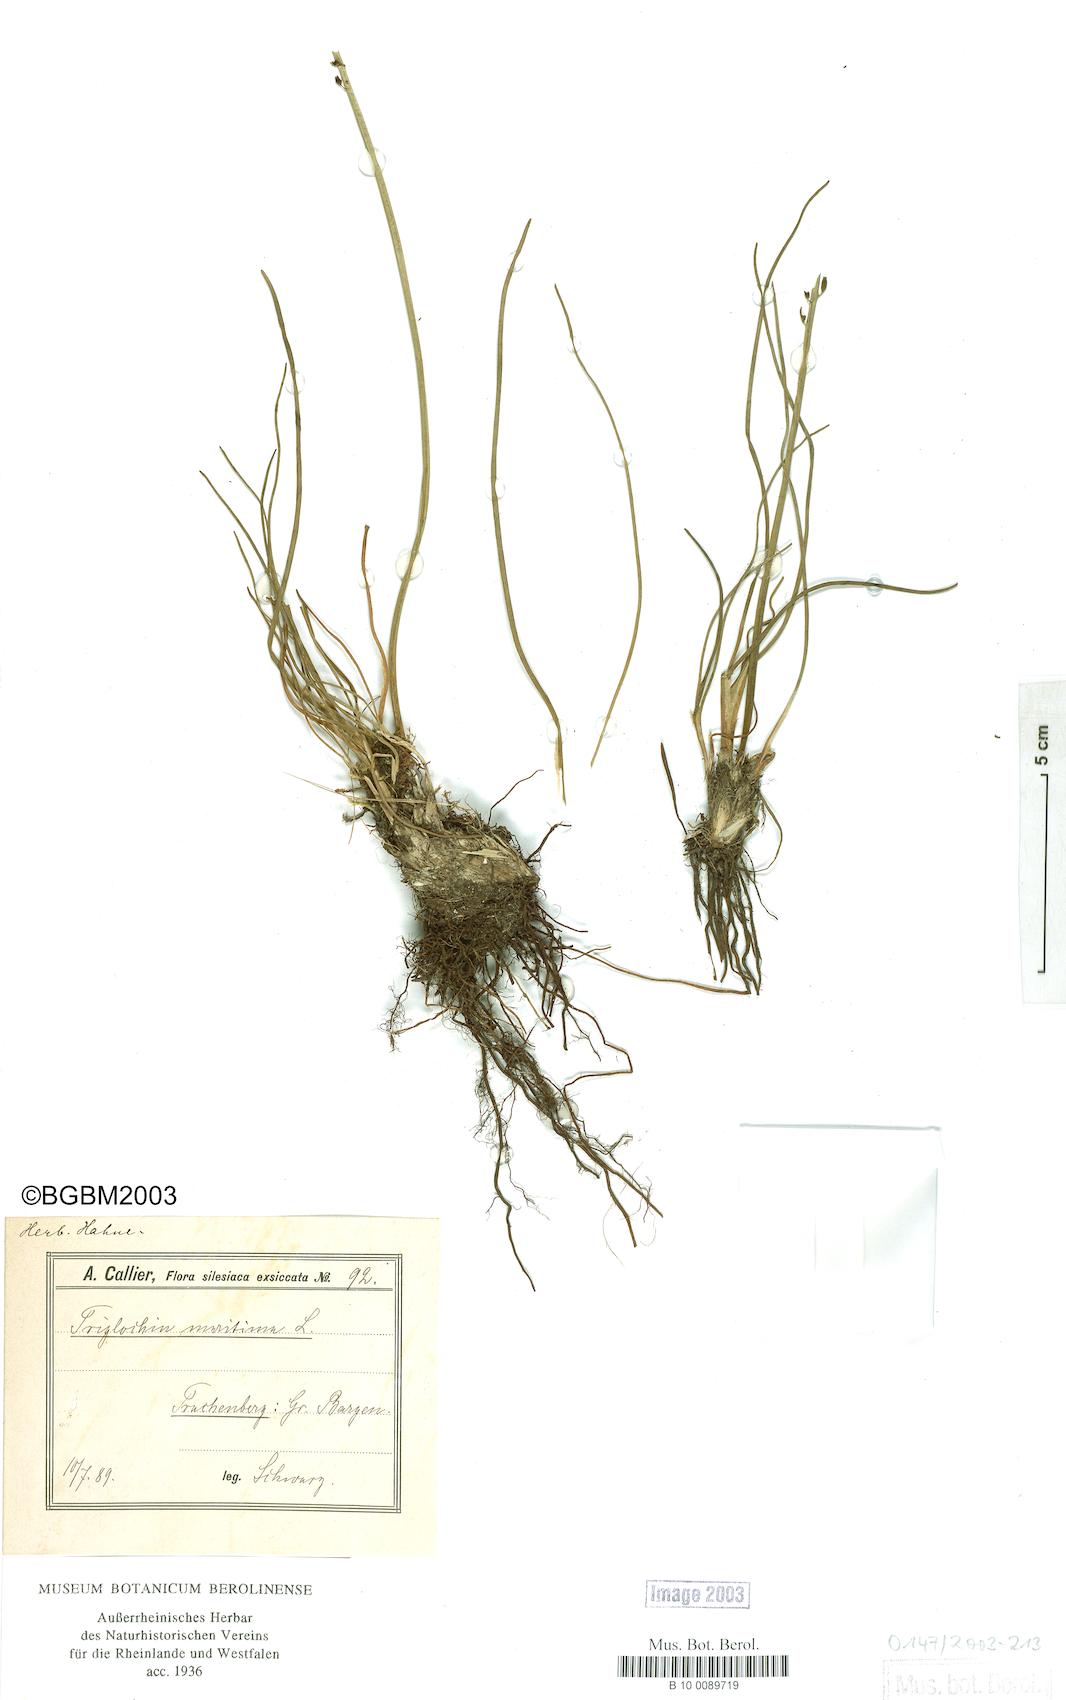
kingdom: Plantae
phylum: Tracheophyta
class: Liliopsida
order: Alismatales
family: Juncaginaceae
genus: Triglochin
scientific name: Triglochin maritima
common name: Sea arrowgrass
